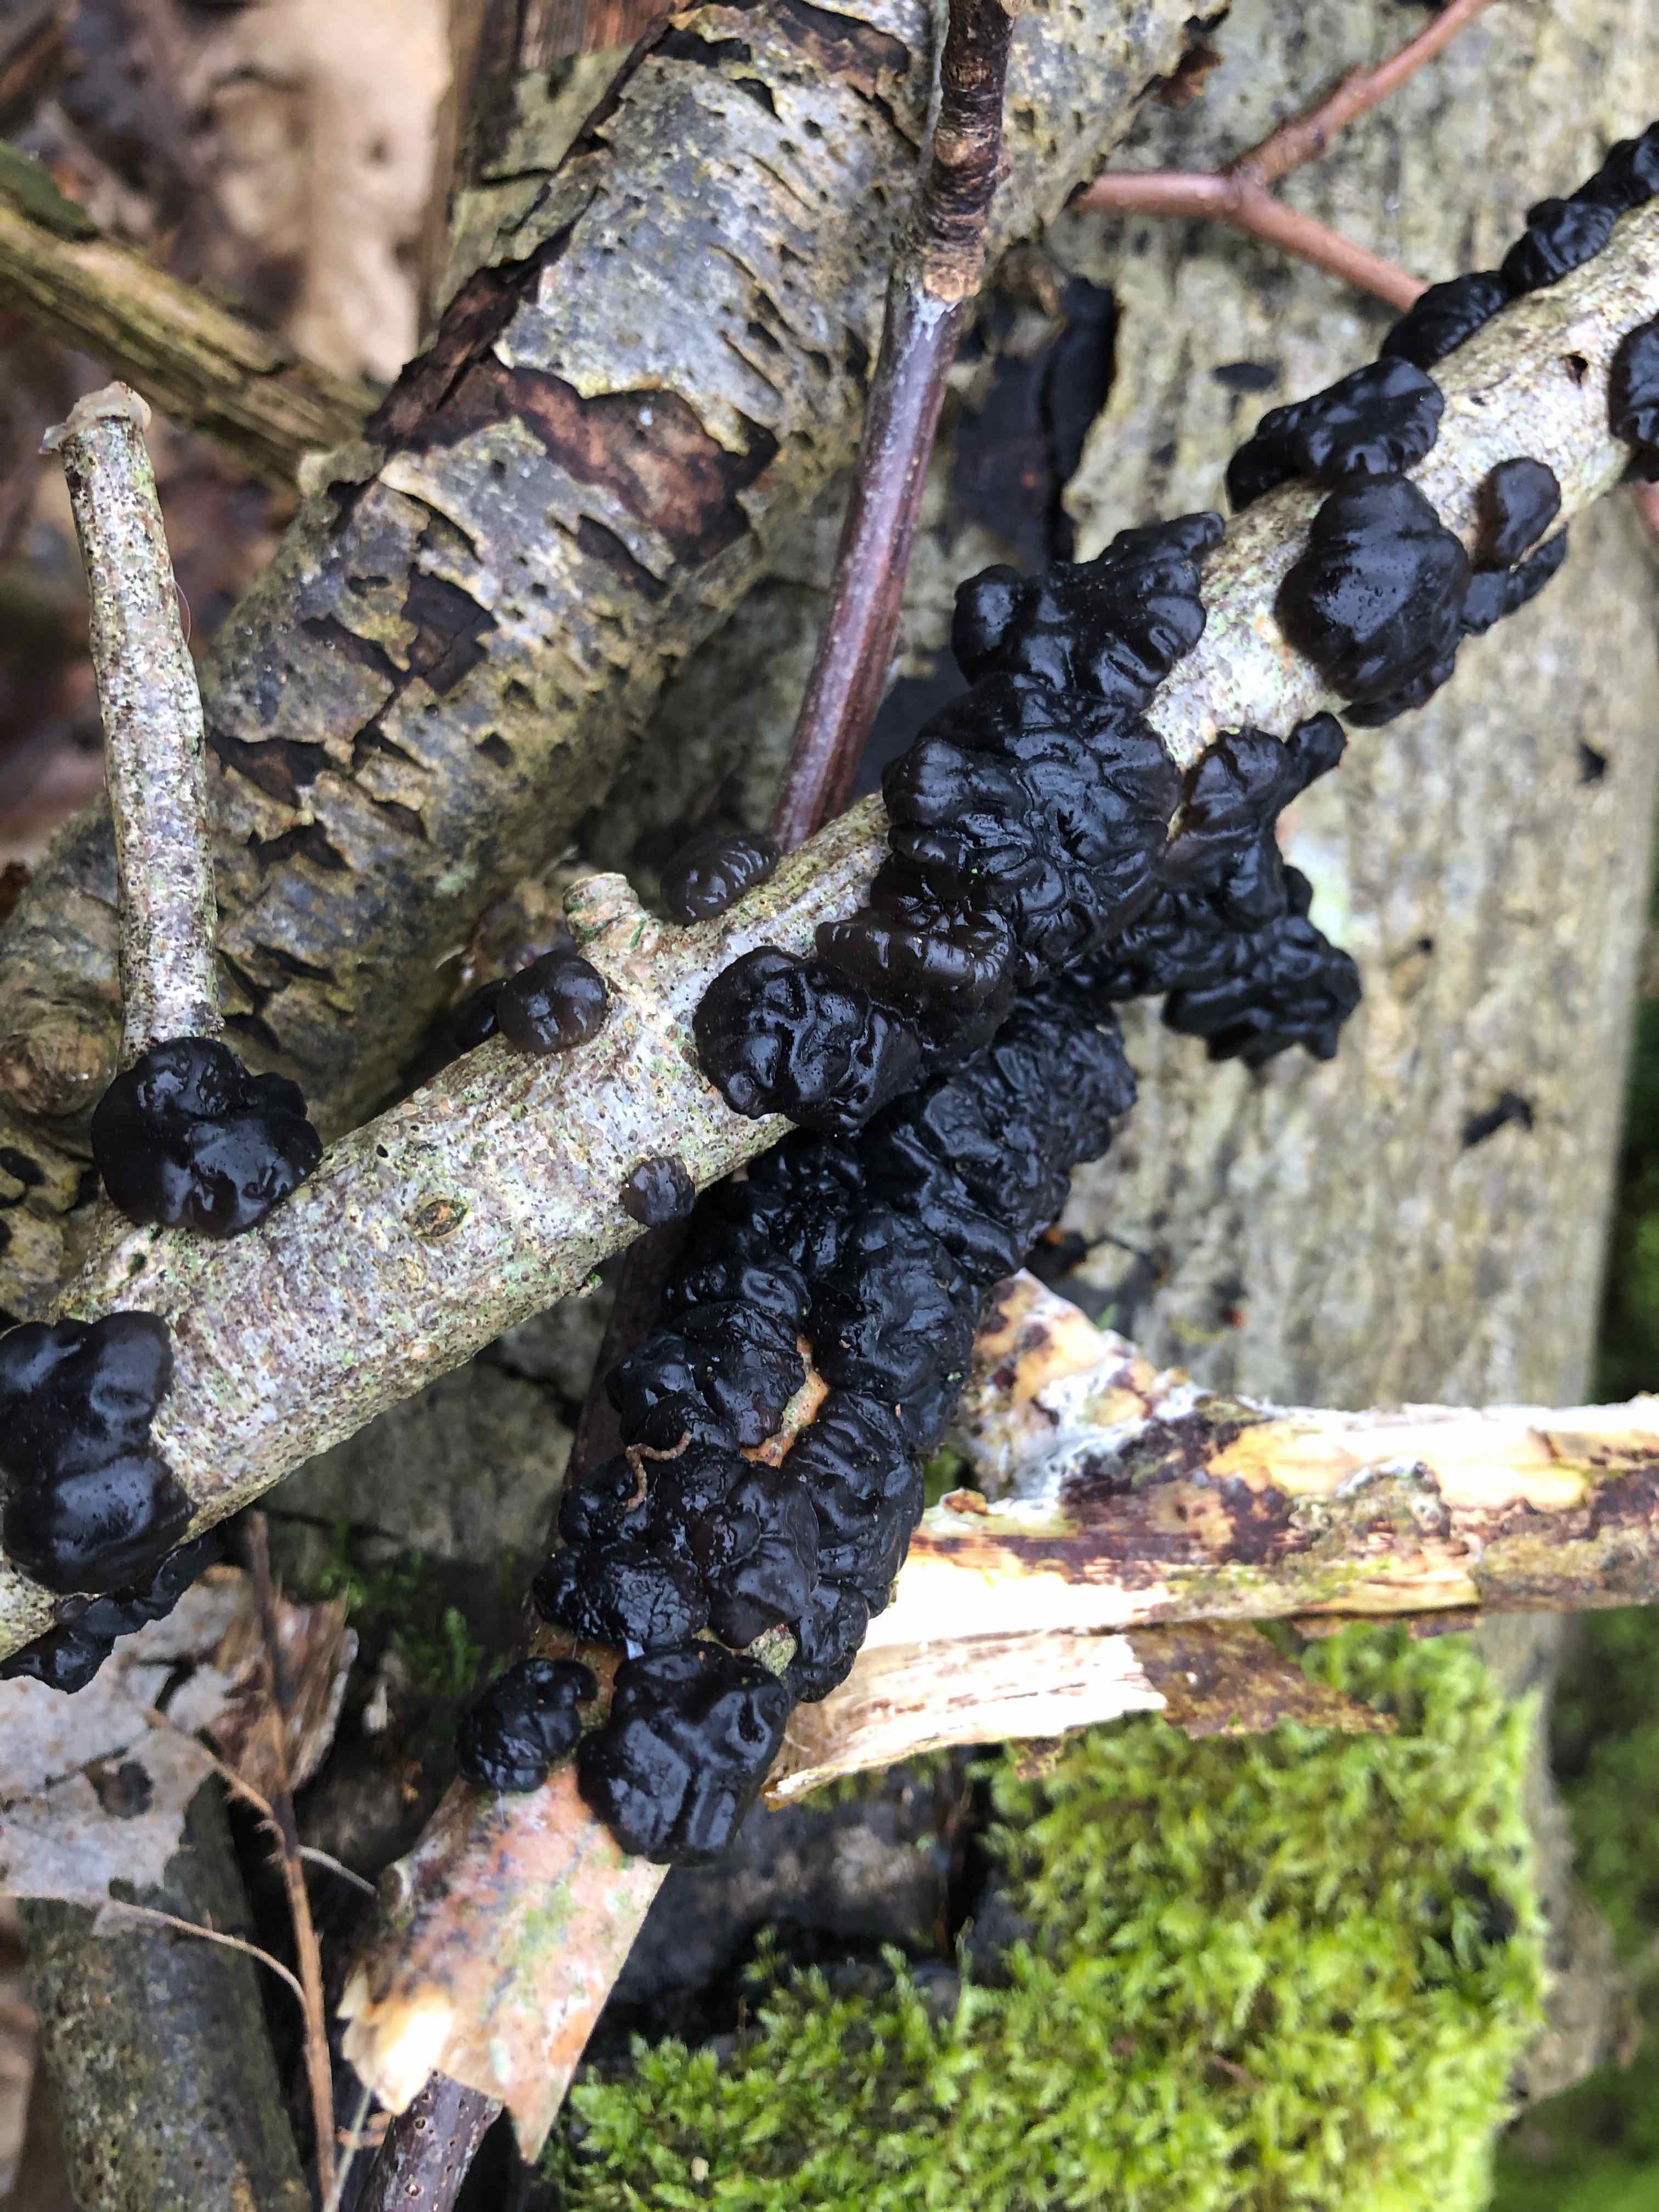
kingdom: Fungi
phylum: Basidiomycota
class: Agaricomycetes
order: Auriculariales
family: Auriculariaceae
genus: Exidia
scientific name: Exidia nigricans
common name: almindelig bævretop
